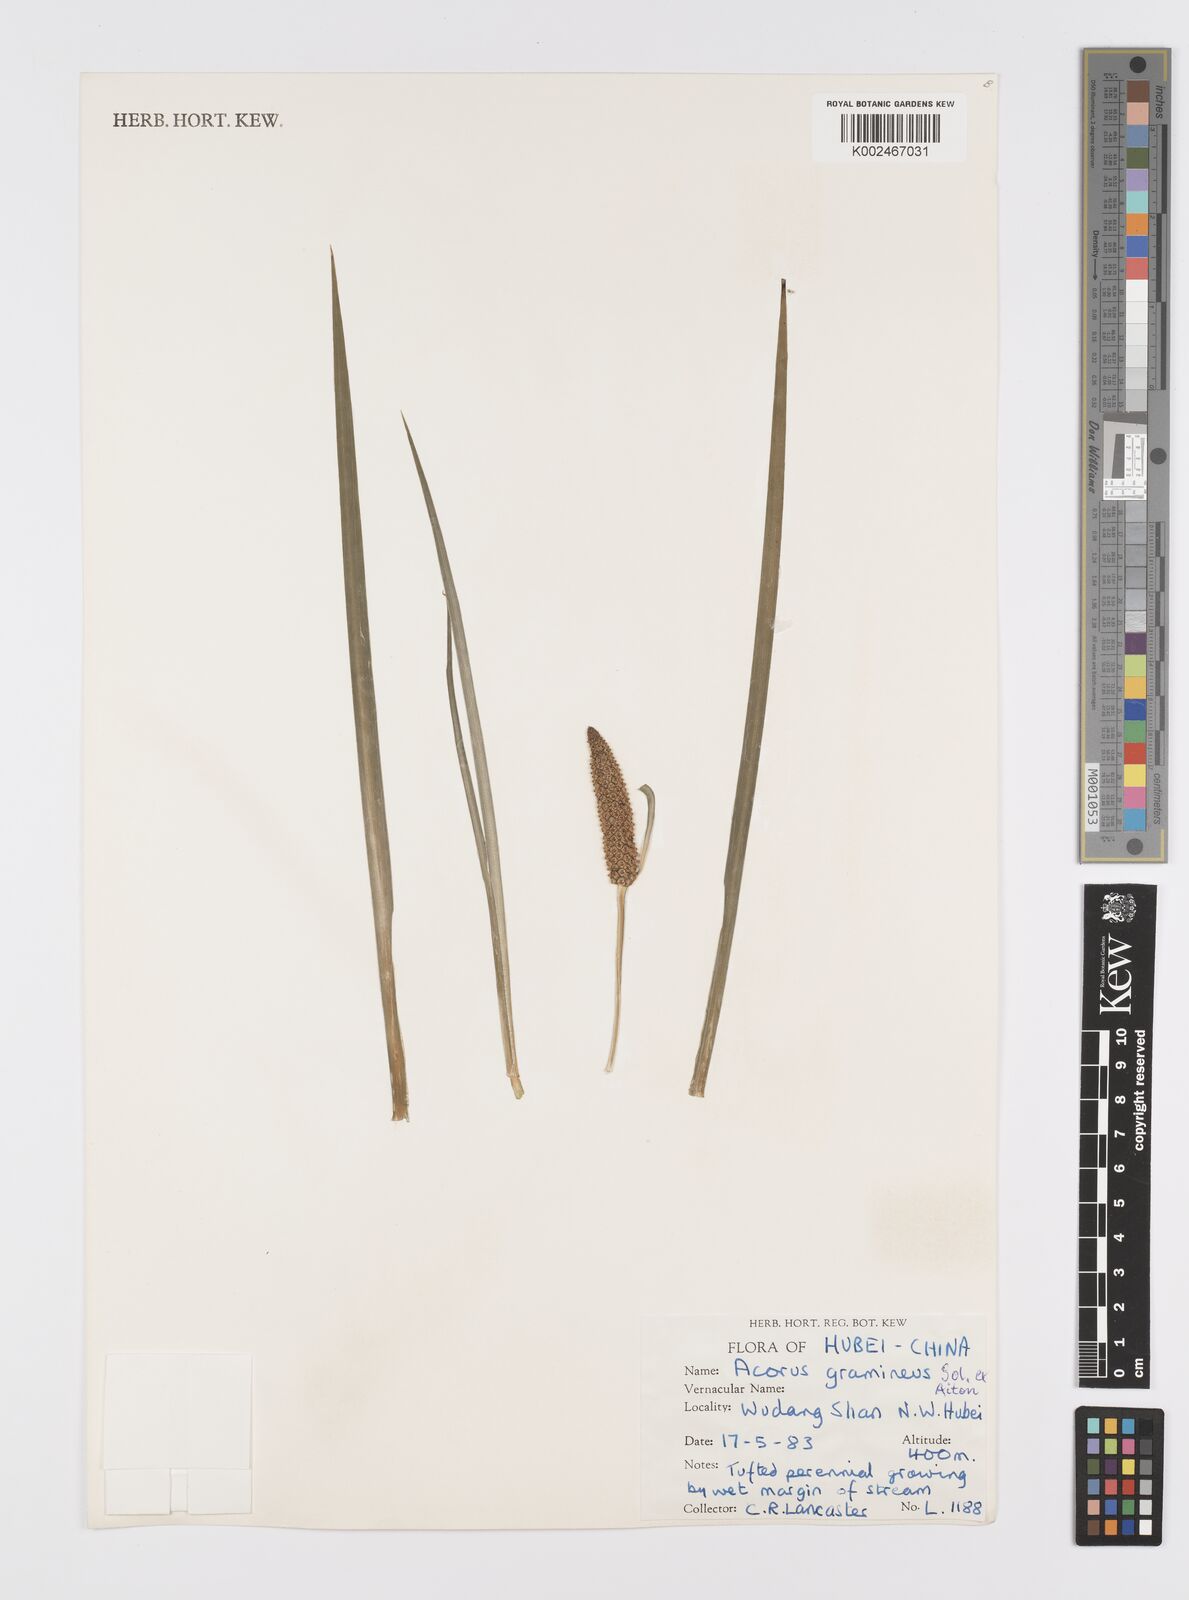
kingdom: Plantae
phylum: Tracheophyta
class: Liliopsida
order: Acorales
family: Acoraceae
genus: Acorus
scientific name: Acorus gramineus
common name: Slender sweet-flag
